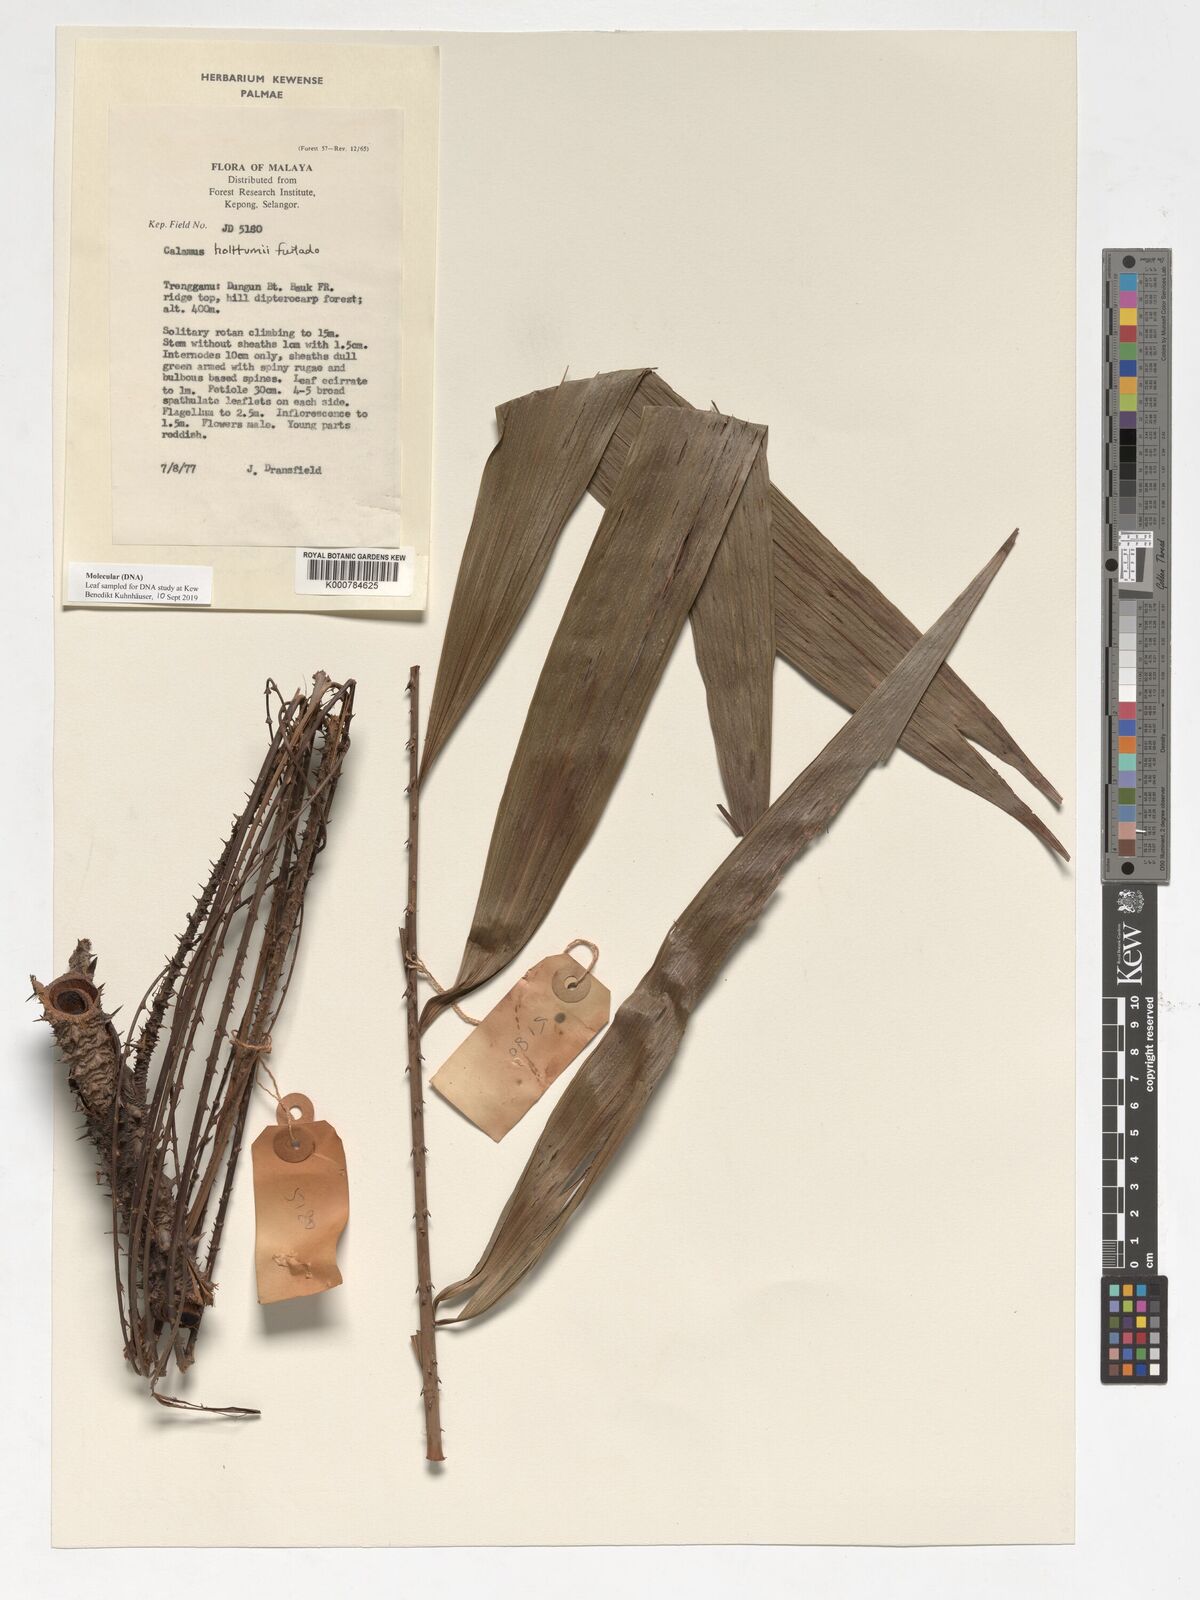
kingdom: Plantae
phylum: Tracheophyta
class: Liliopsida
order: Arecales
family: Arecaceae
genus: Calamus
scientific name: Calamus holttumii
